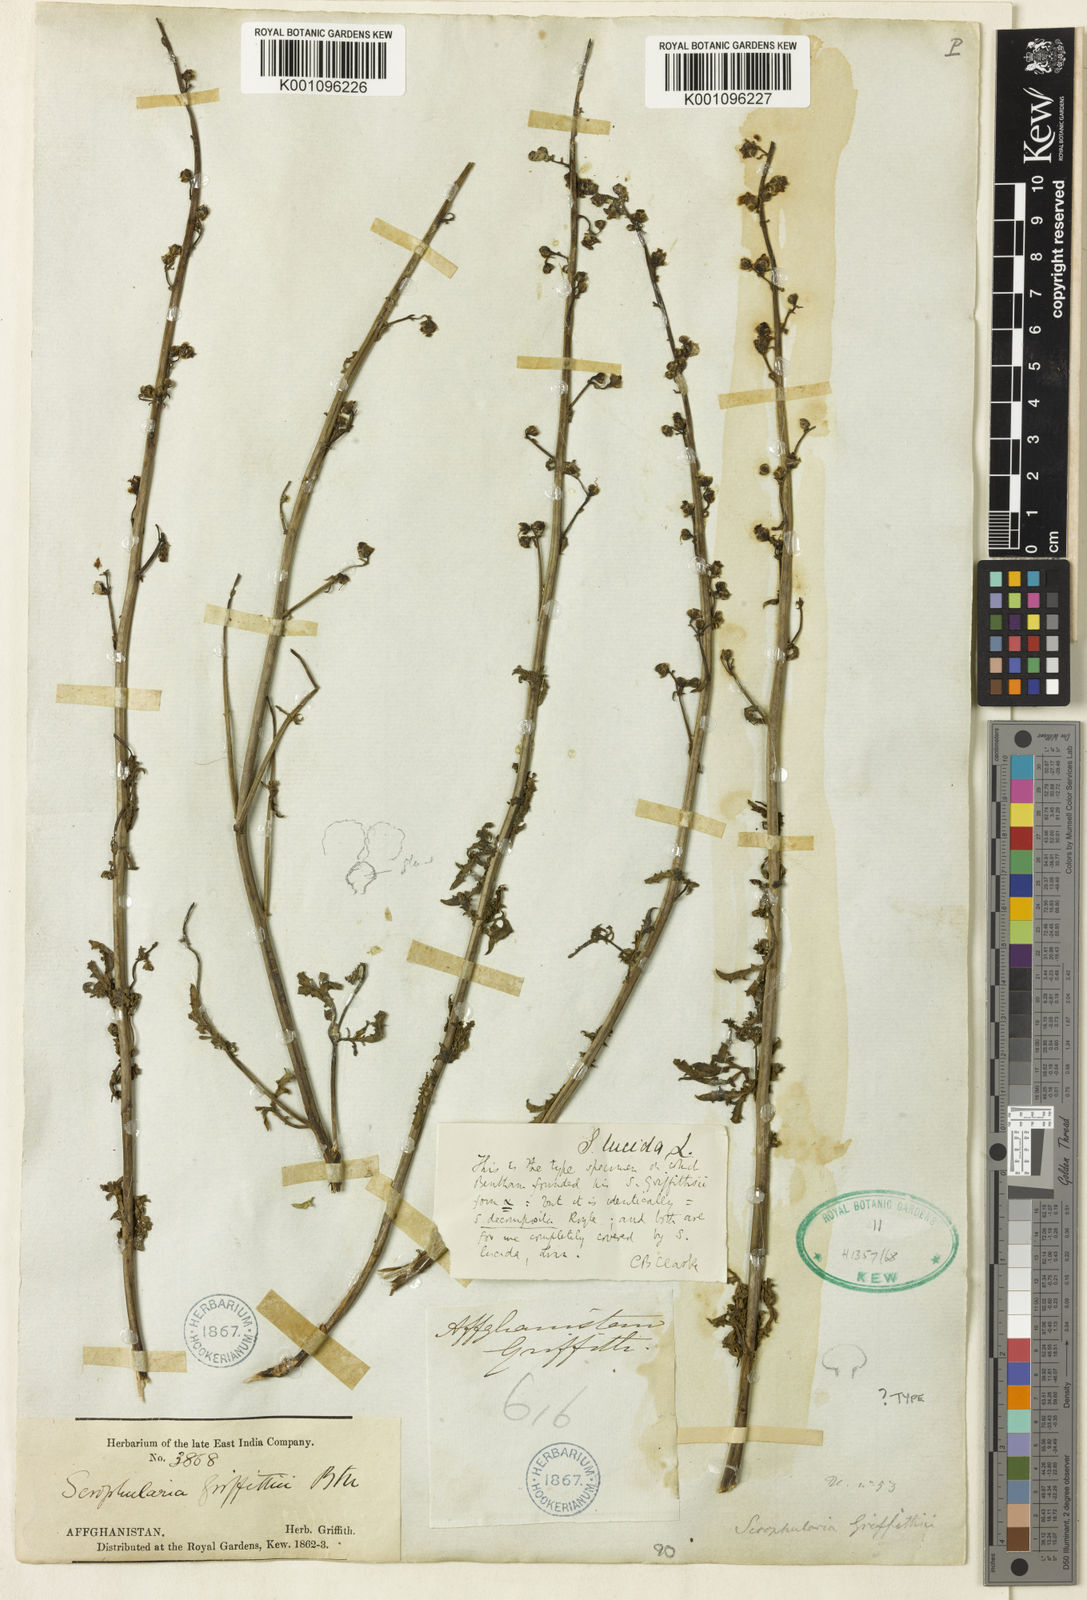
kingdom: Plantae
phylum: Tracheophyta
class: Magnoliopsida
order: Lamiales
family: Scrophulariaceae
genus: Scrophularia
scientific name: Scrophularia griffithii
